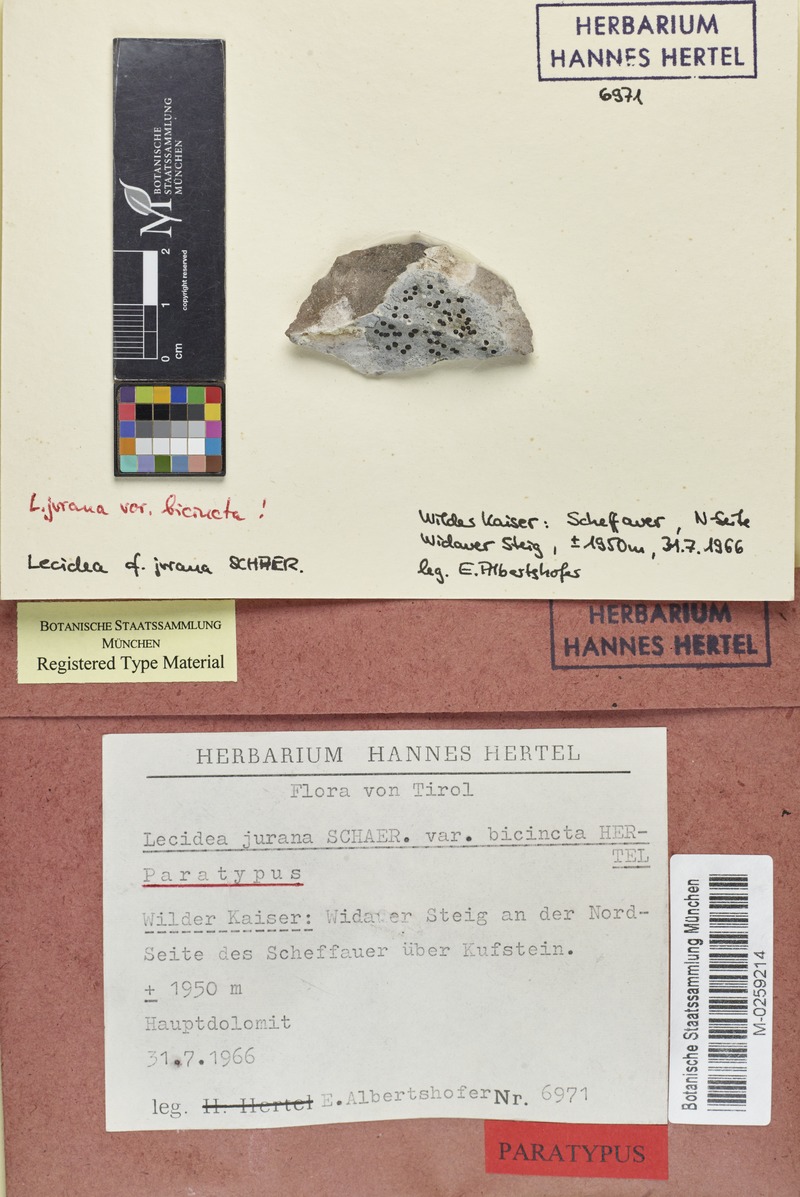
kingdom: Fungi
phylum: Ascomycota
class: Lecanoromycetes
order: Lecideales
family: Lecideaceae
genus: Farnoldia
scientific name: Farnoldia jurana
